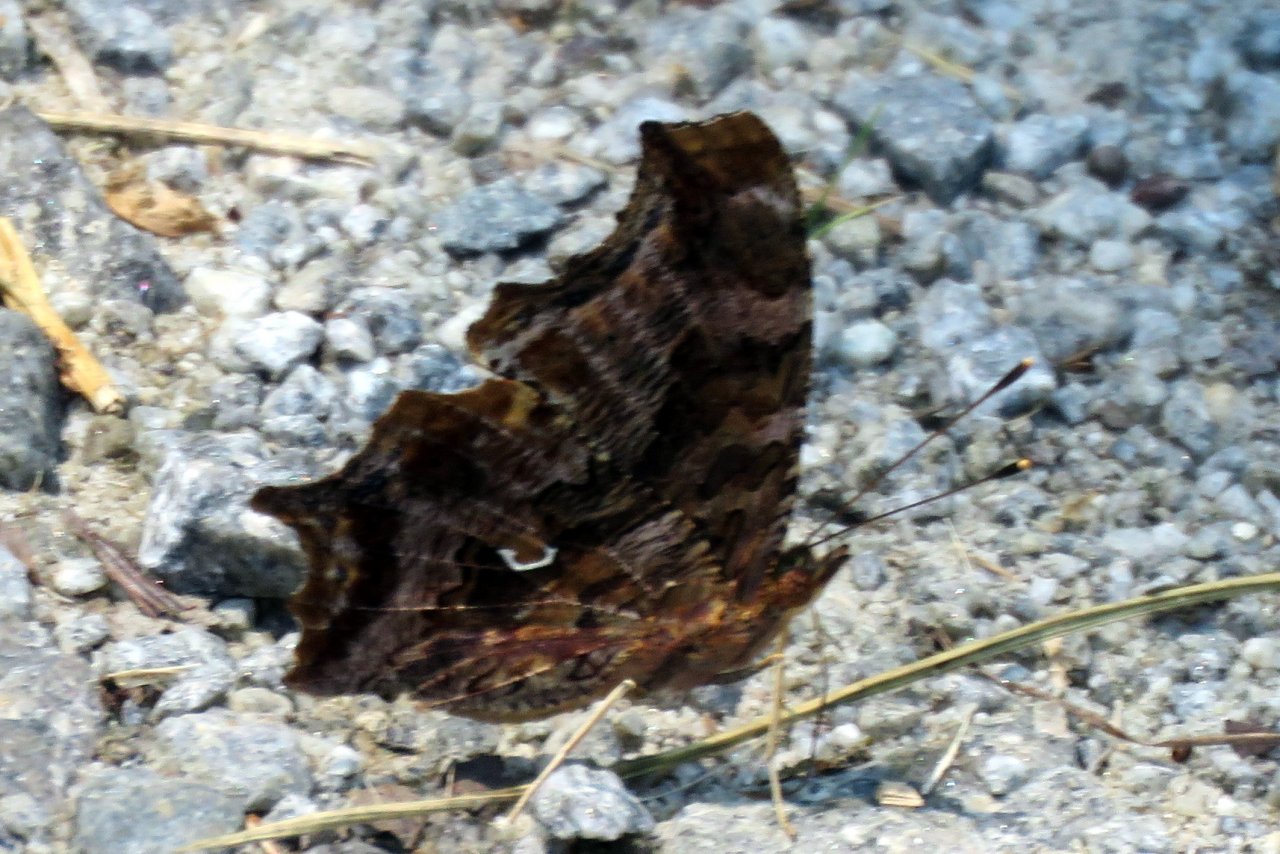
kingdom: Animalia
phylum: Arthropoda
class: Insecta
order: Lepidoptera
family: Nymphalidae
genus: Polygonia
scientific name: Polygonia comma
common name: Eastern Comma
